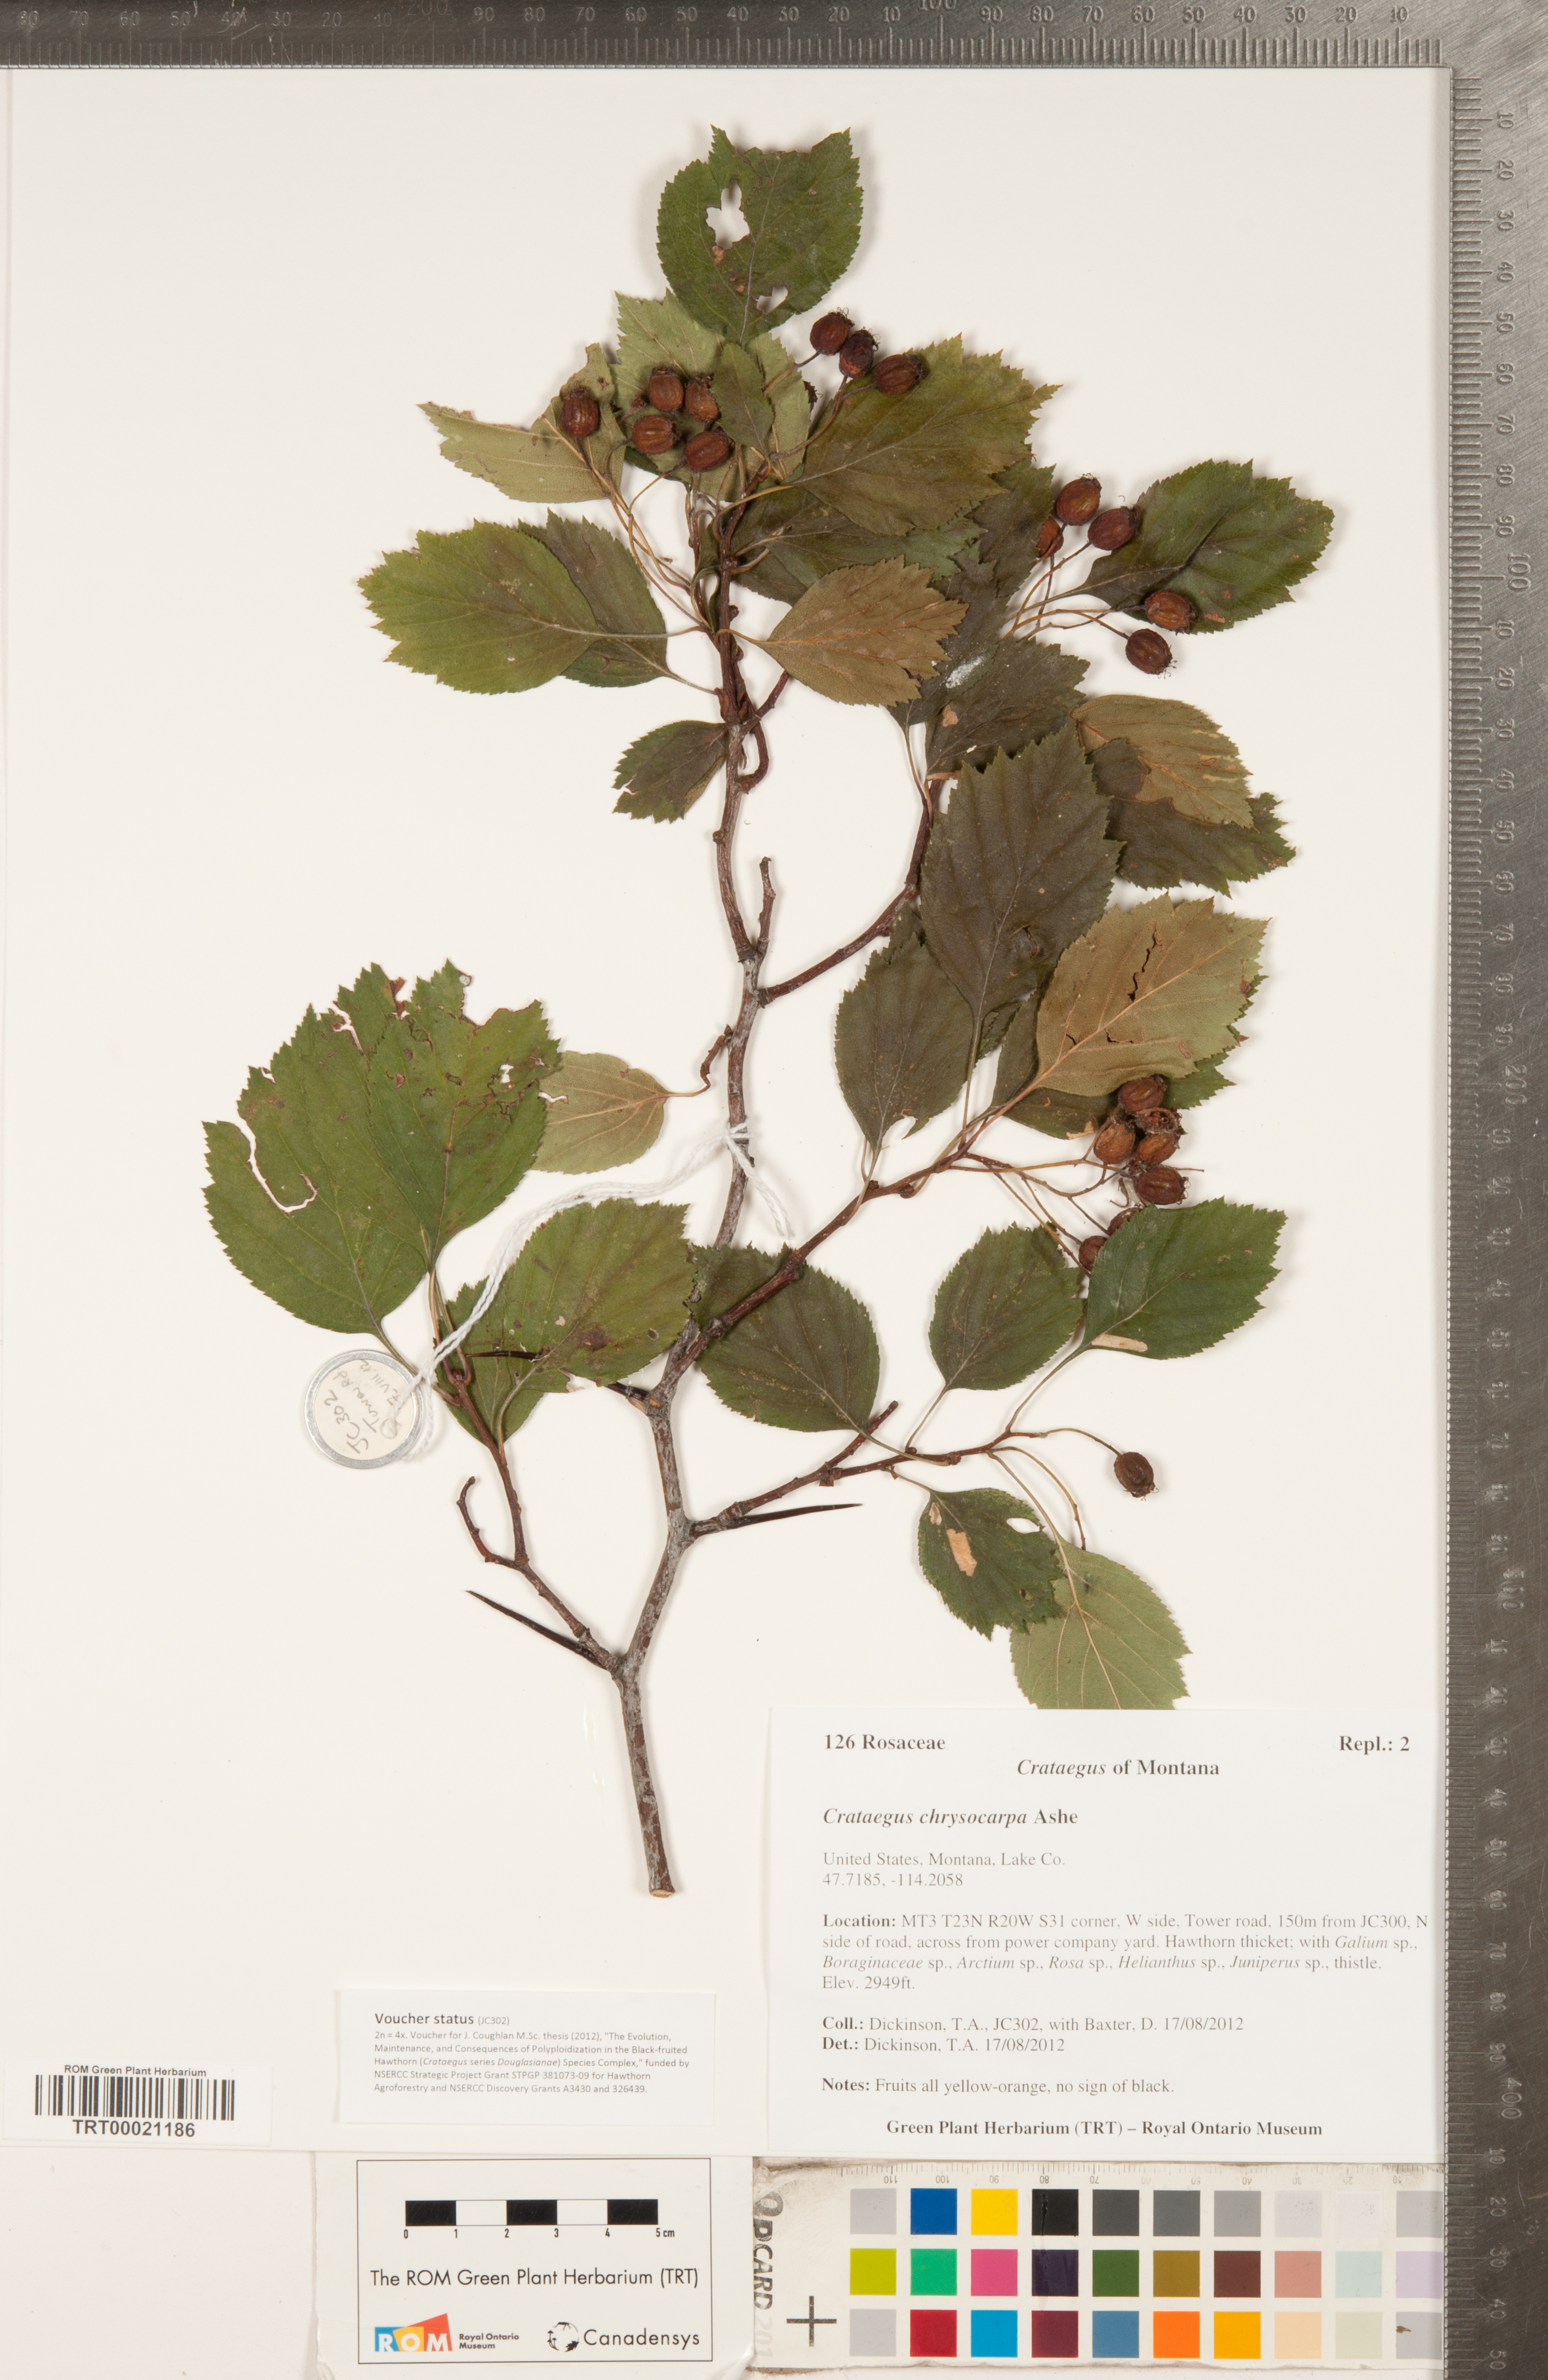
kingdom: Plantae
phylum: Tracheophyta
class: Magnoliopsida
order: Rosales
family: Rosaceae
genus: Crataegus
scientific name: Crataegus chrysocarpa
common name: Fire-berry hawthorn
